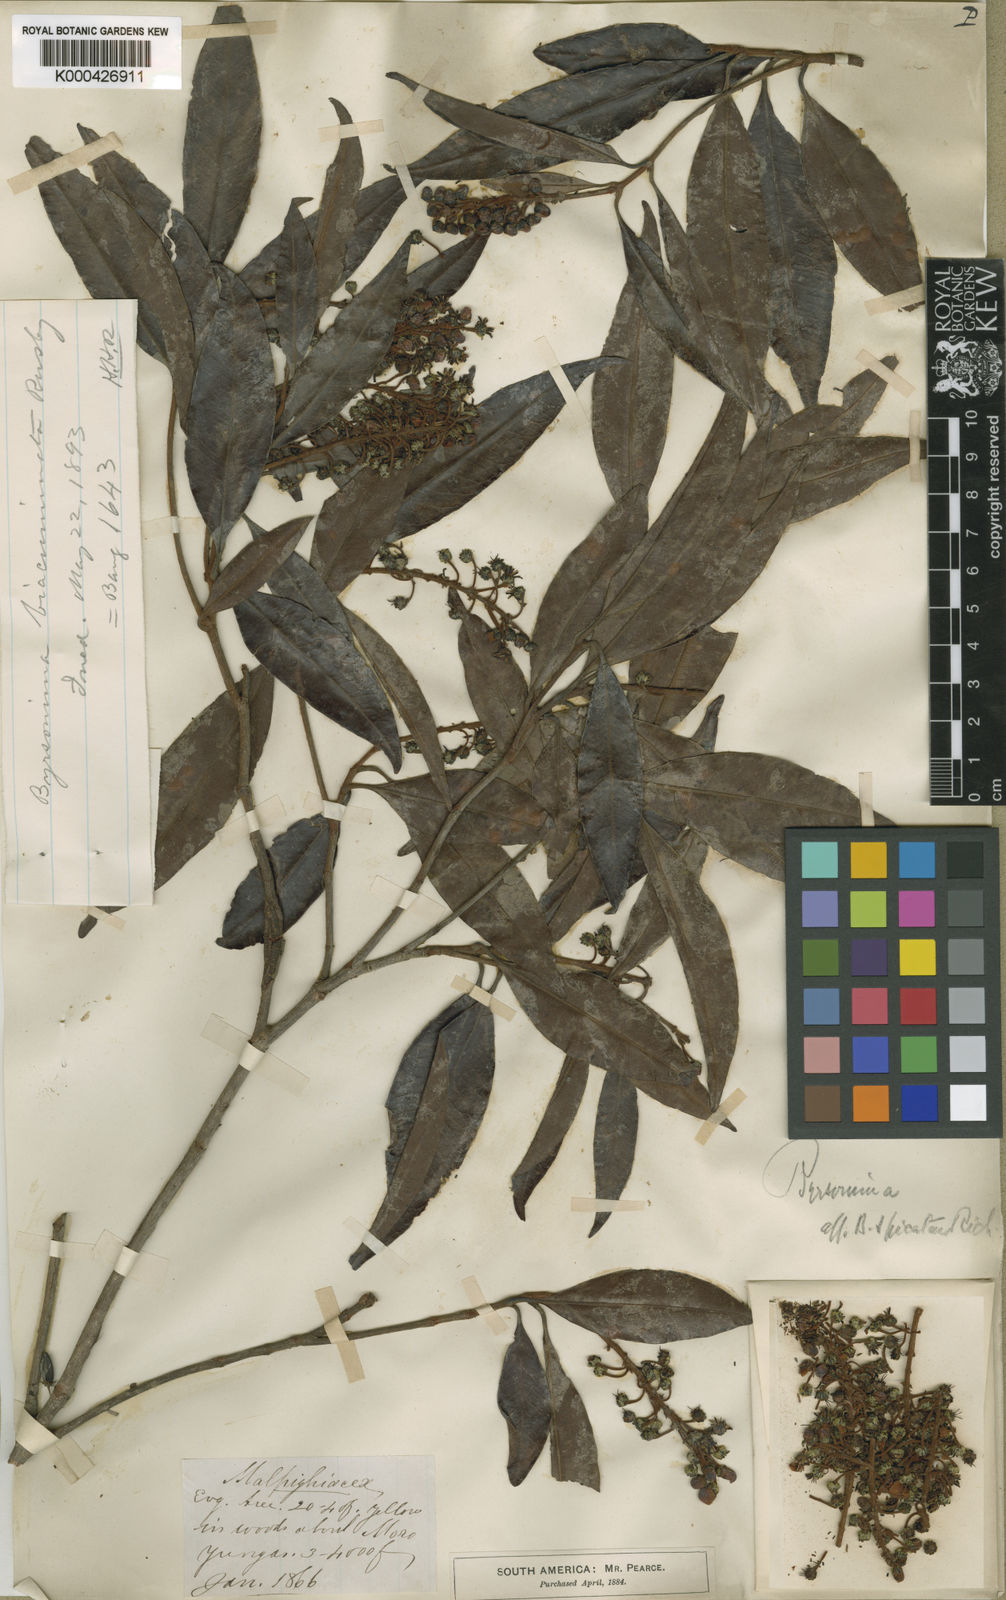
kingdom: Plantae
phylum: Tracheophyta
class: Magnoliopsida
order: Malpighiales
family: Malpighiaceae
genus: Byrsonima
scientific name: Byrsonima
